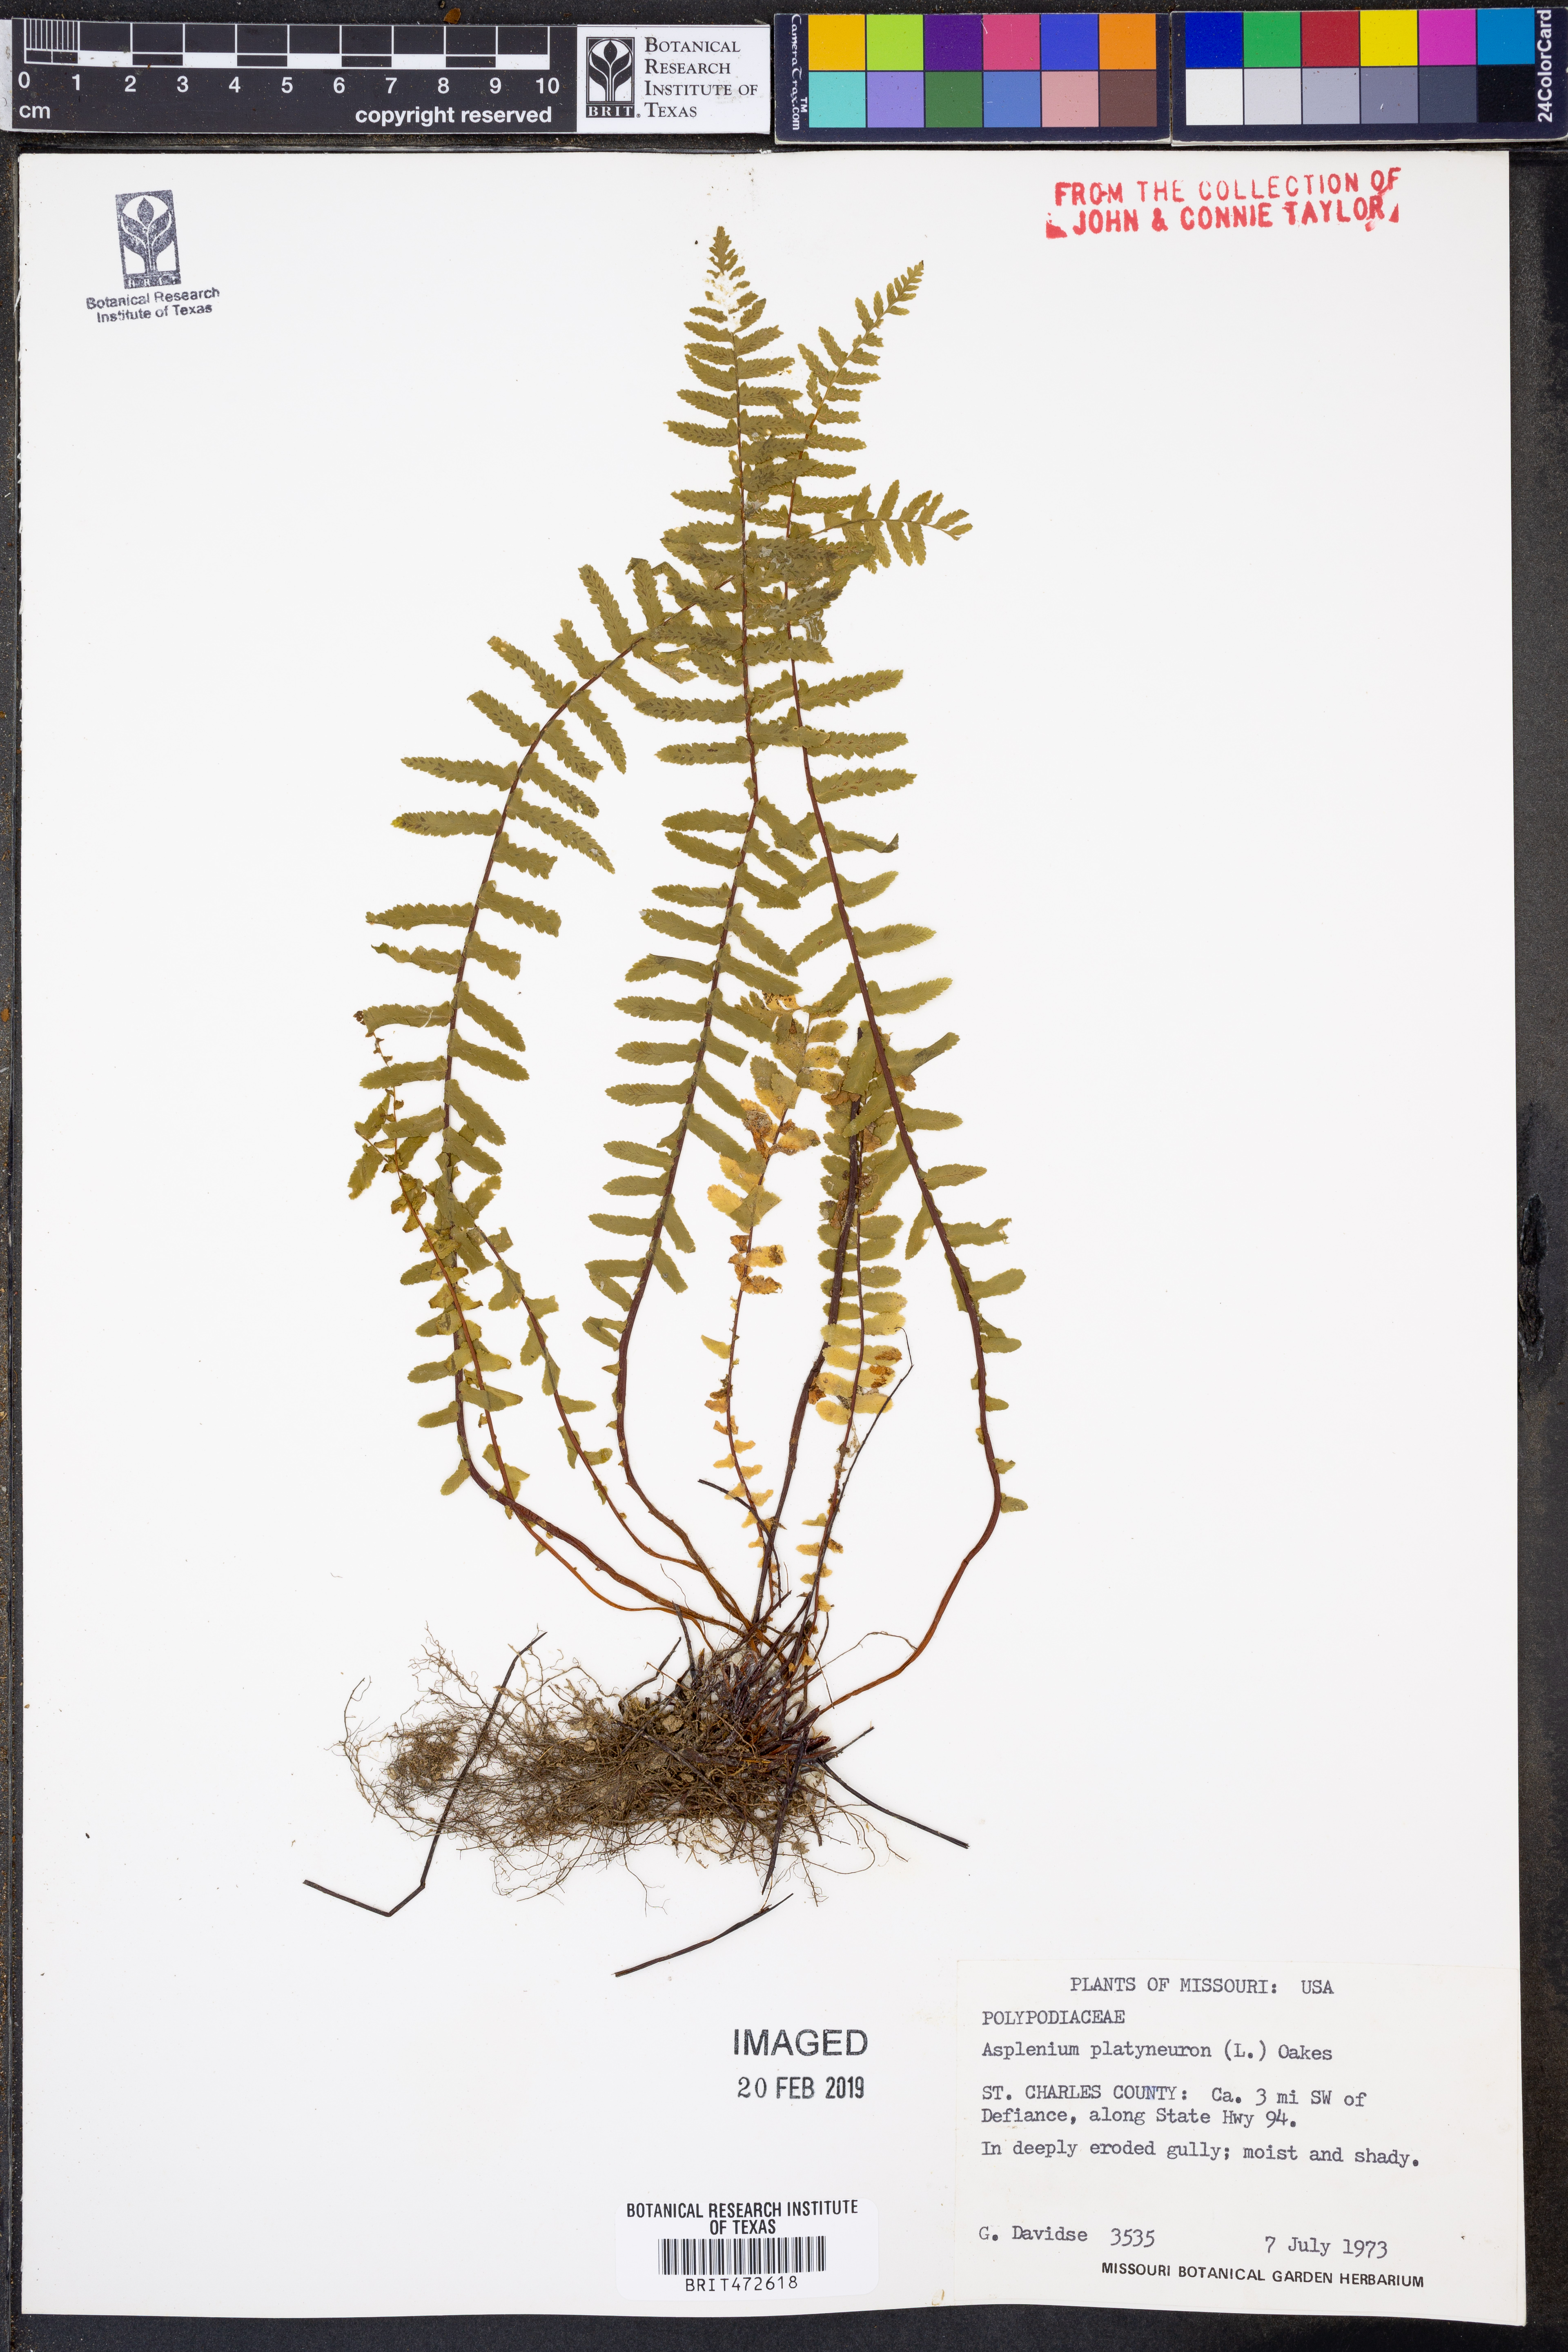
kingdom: Plantae
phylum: Tracheophyta
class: Polypodiopsida
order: Polypodiales
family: Aspleniaceae
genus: Asplenium
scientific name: Asplenium platyneuron
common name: Ebony spleenwort
